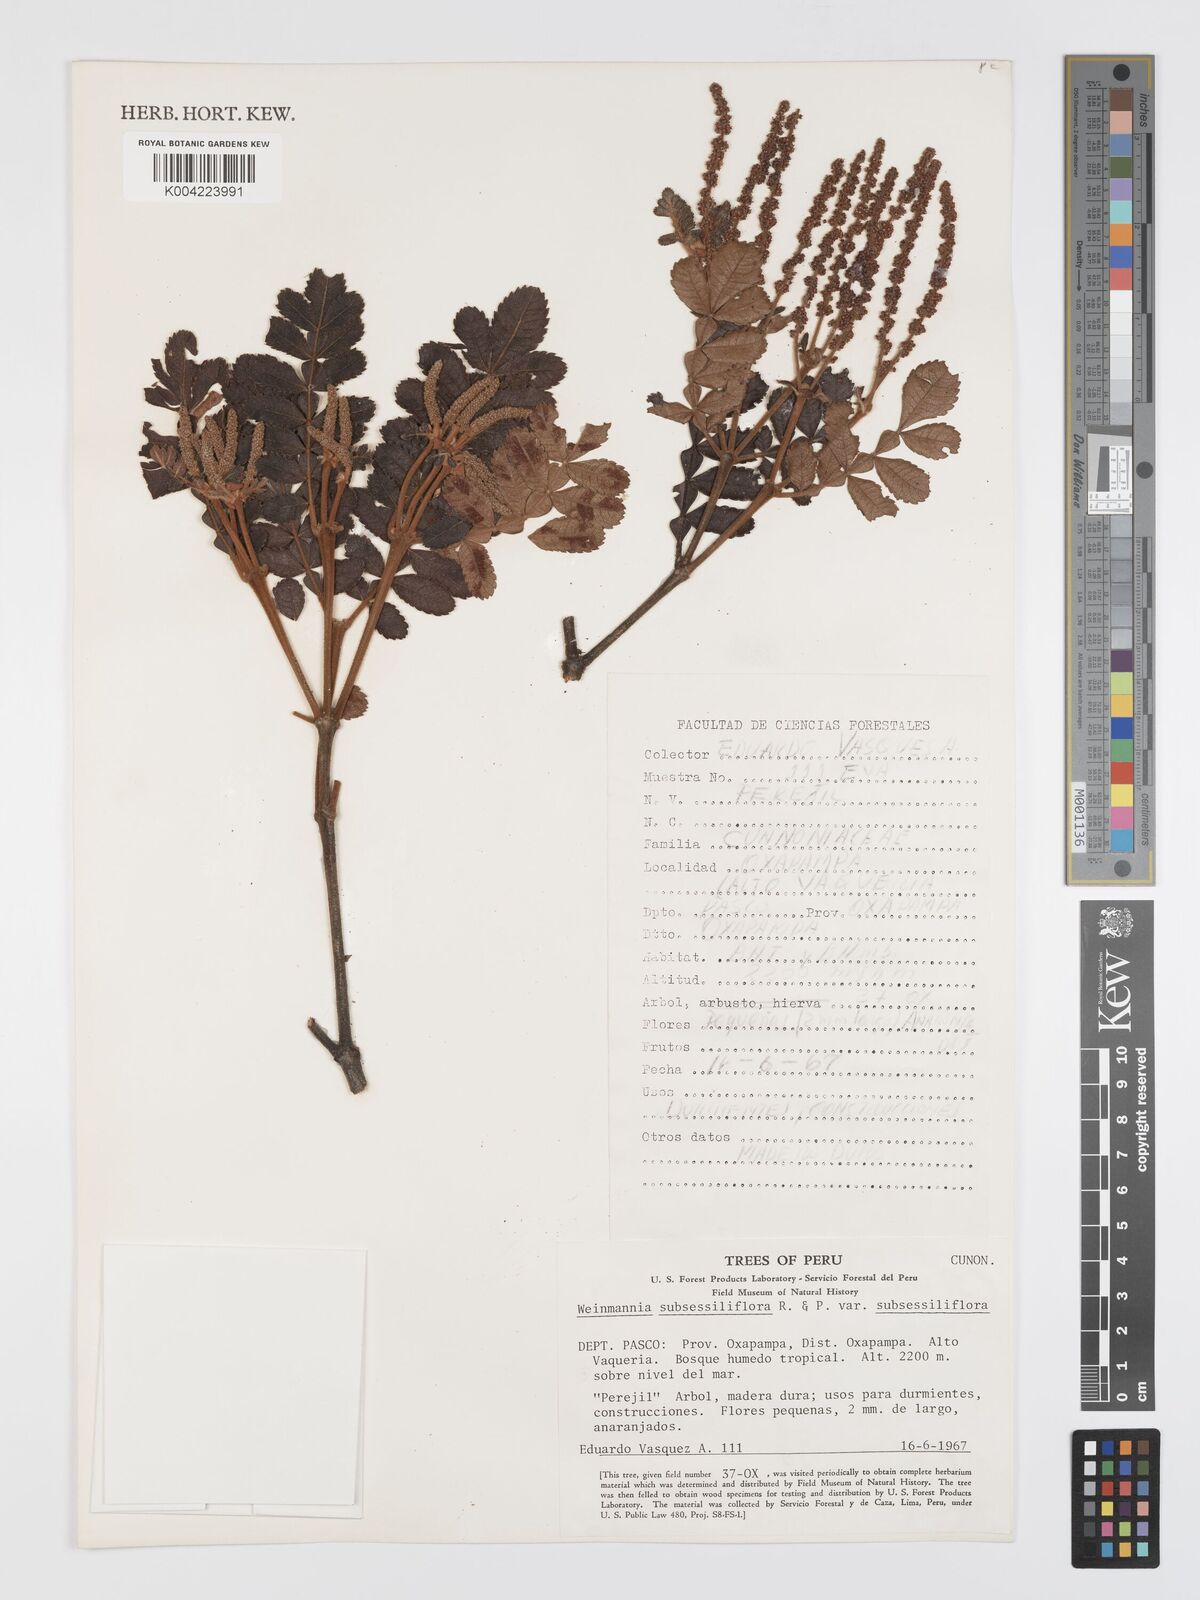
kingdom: Plantae
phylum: Tracheophyta
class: Magnoliopsida
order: Oxalidales
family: Cunoniaceae
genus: Weinmannia
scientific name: Weinmannia subsessiliflora
